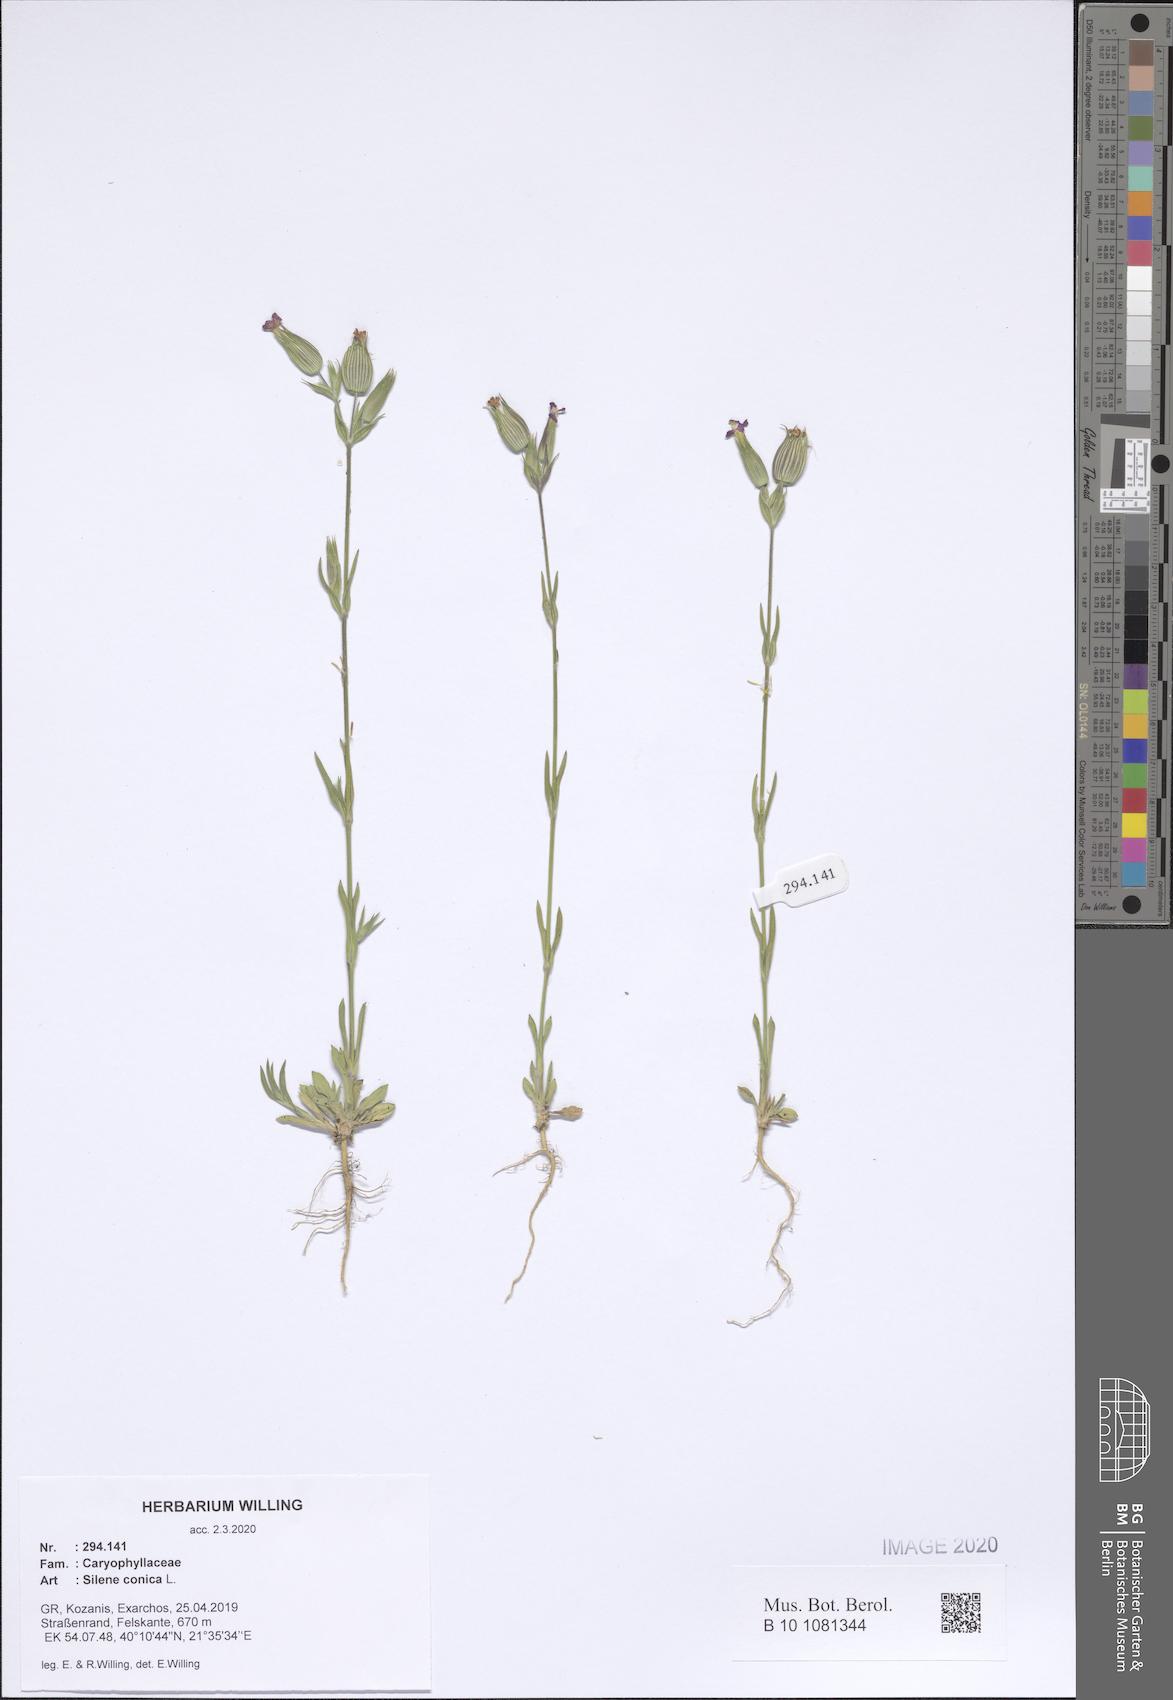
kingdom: Plantae
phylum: Tracheophyta
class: Magnoliopsida
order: Caryophyllales
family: Caryophyllaceae
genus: Silene
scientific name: Silene conica
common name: Sand catchfly
